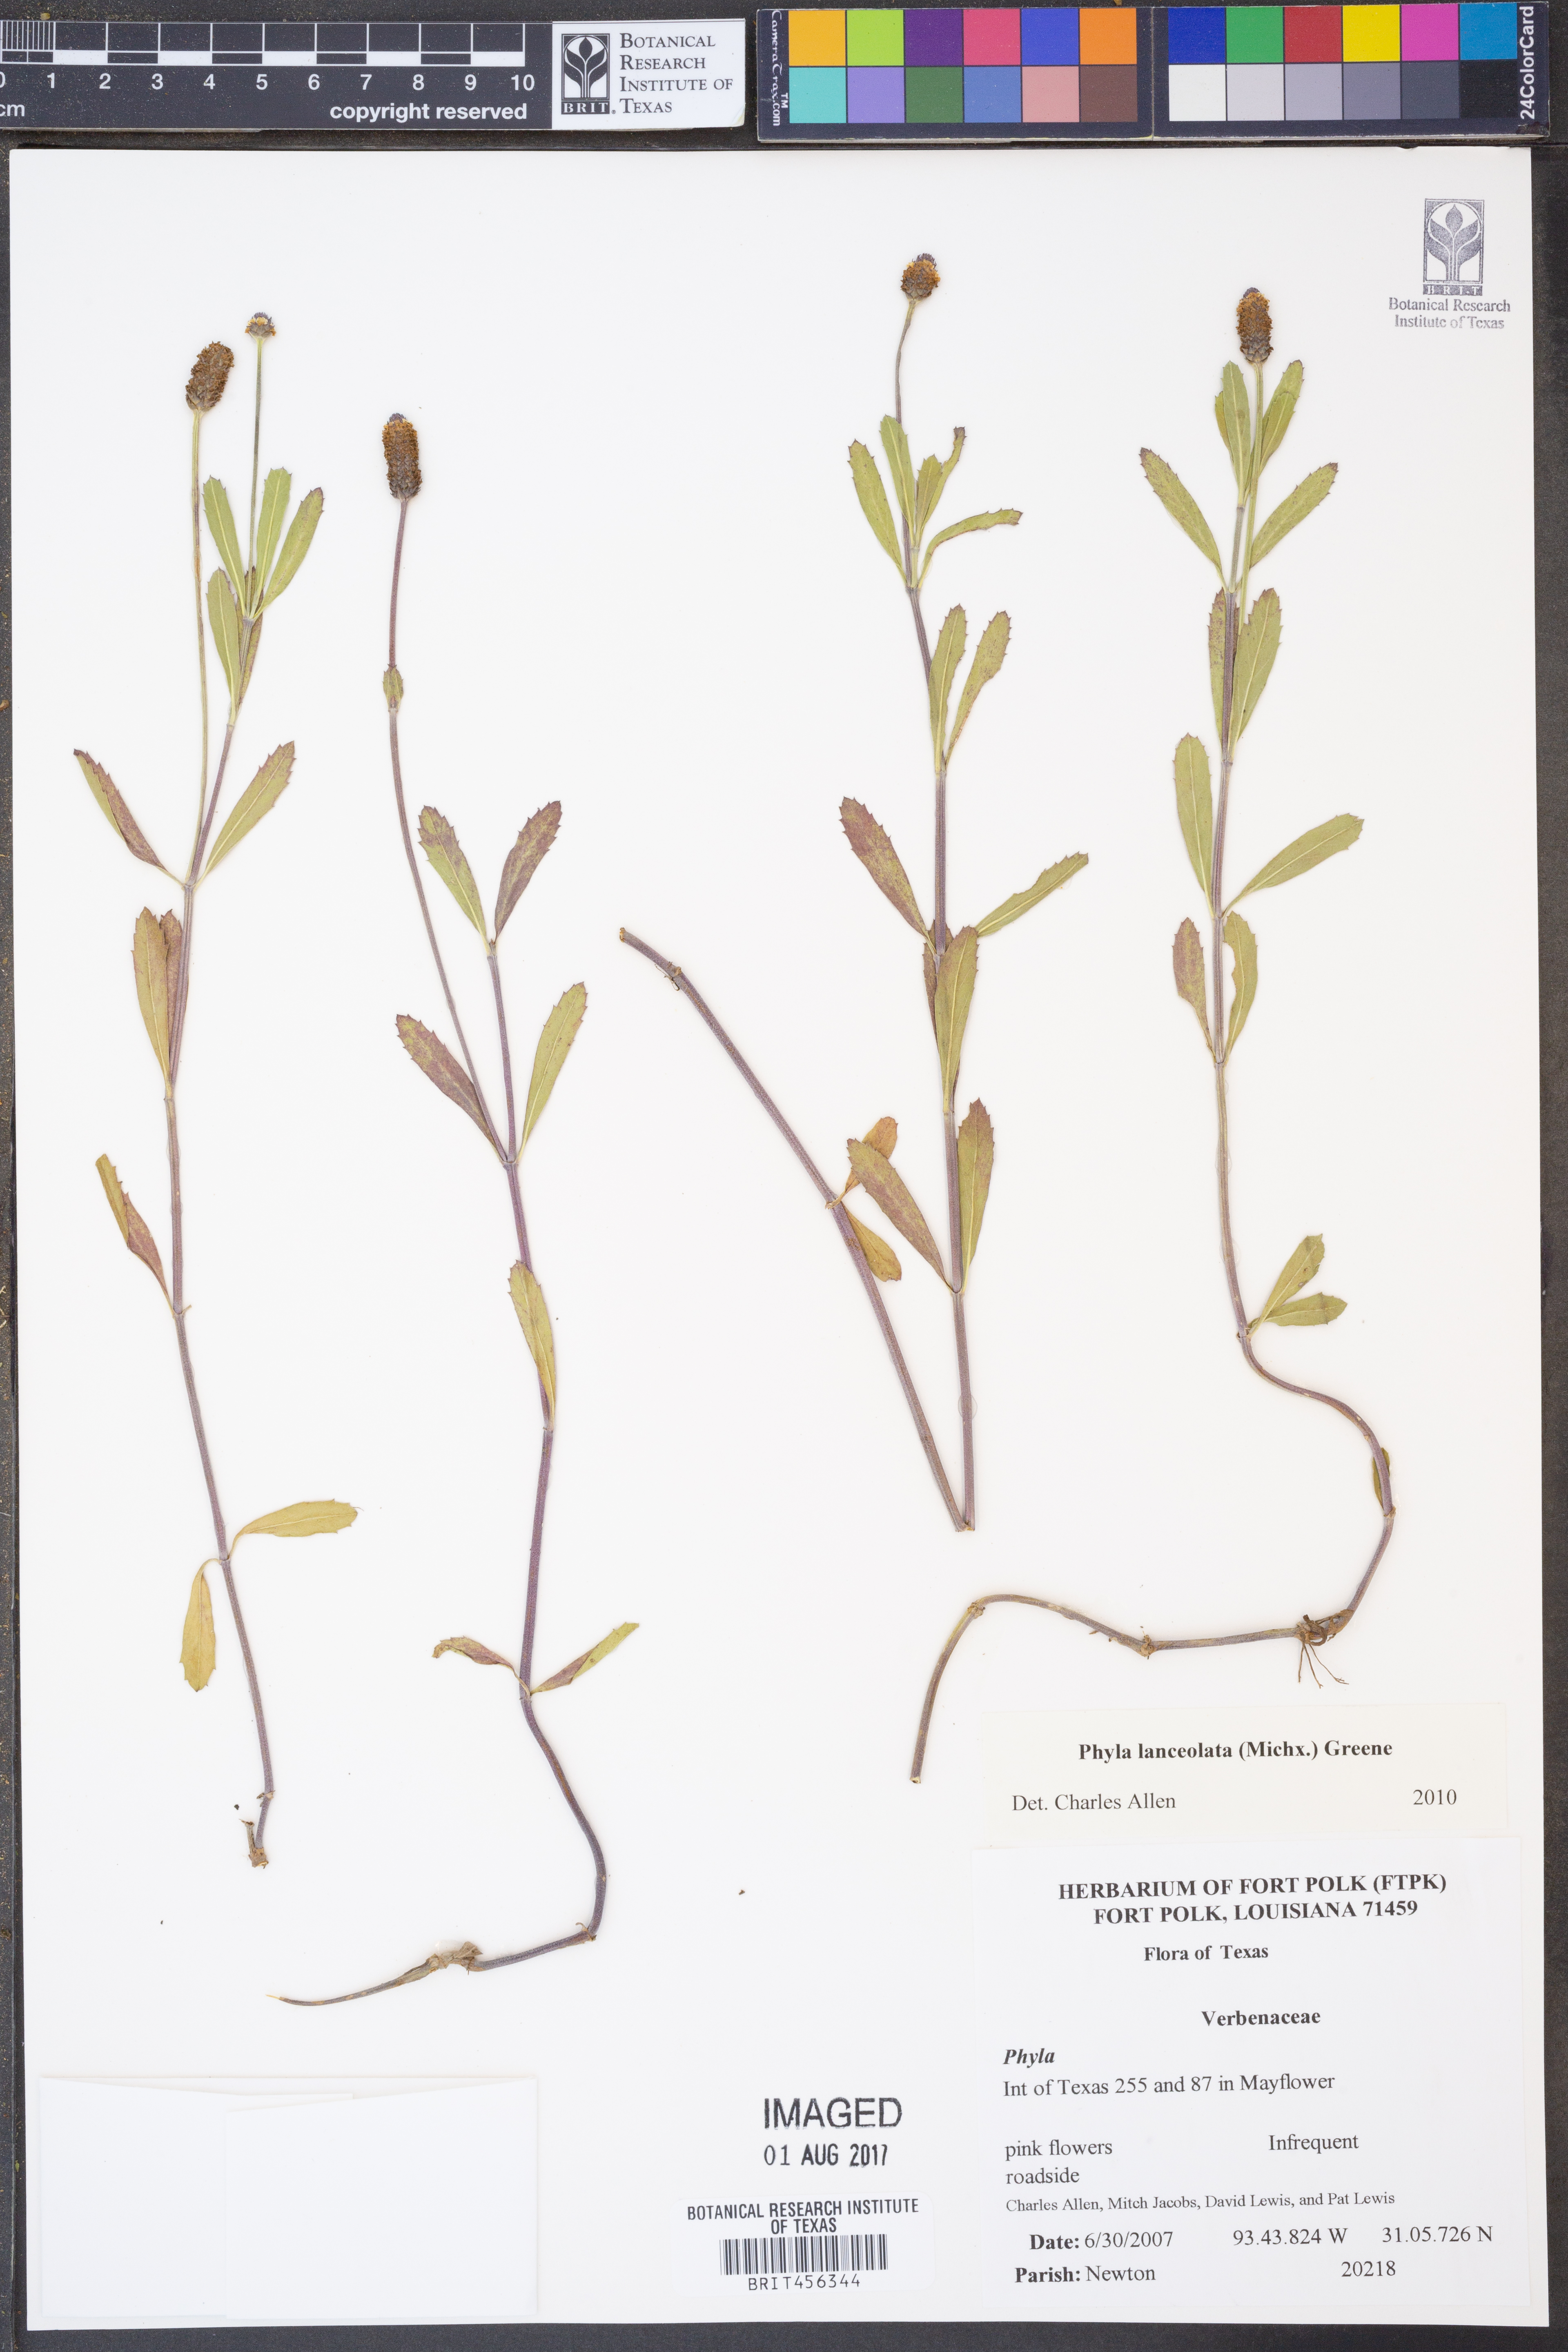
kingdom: Plantae
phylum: Tracheophyta
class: Magnoliopsida
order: Lamiales
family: Verbenaceae
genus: Phyla
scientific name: Phyla lanceolata
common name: Northern fogfruit
